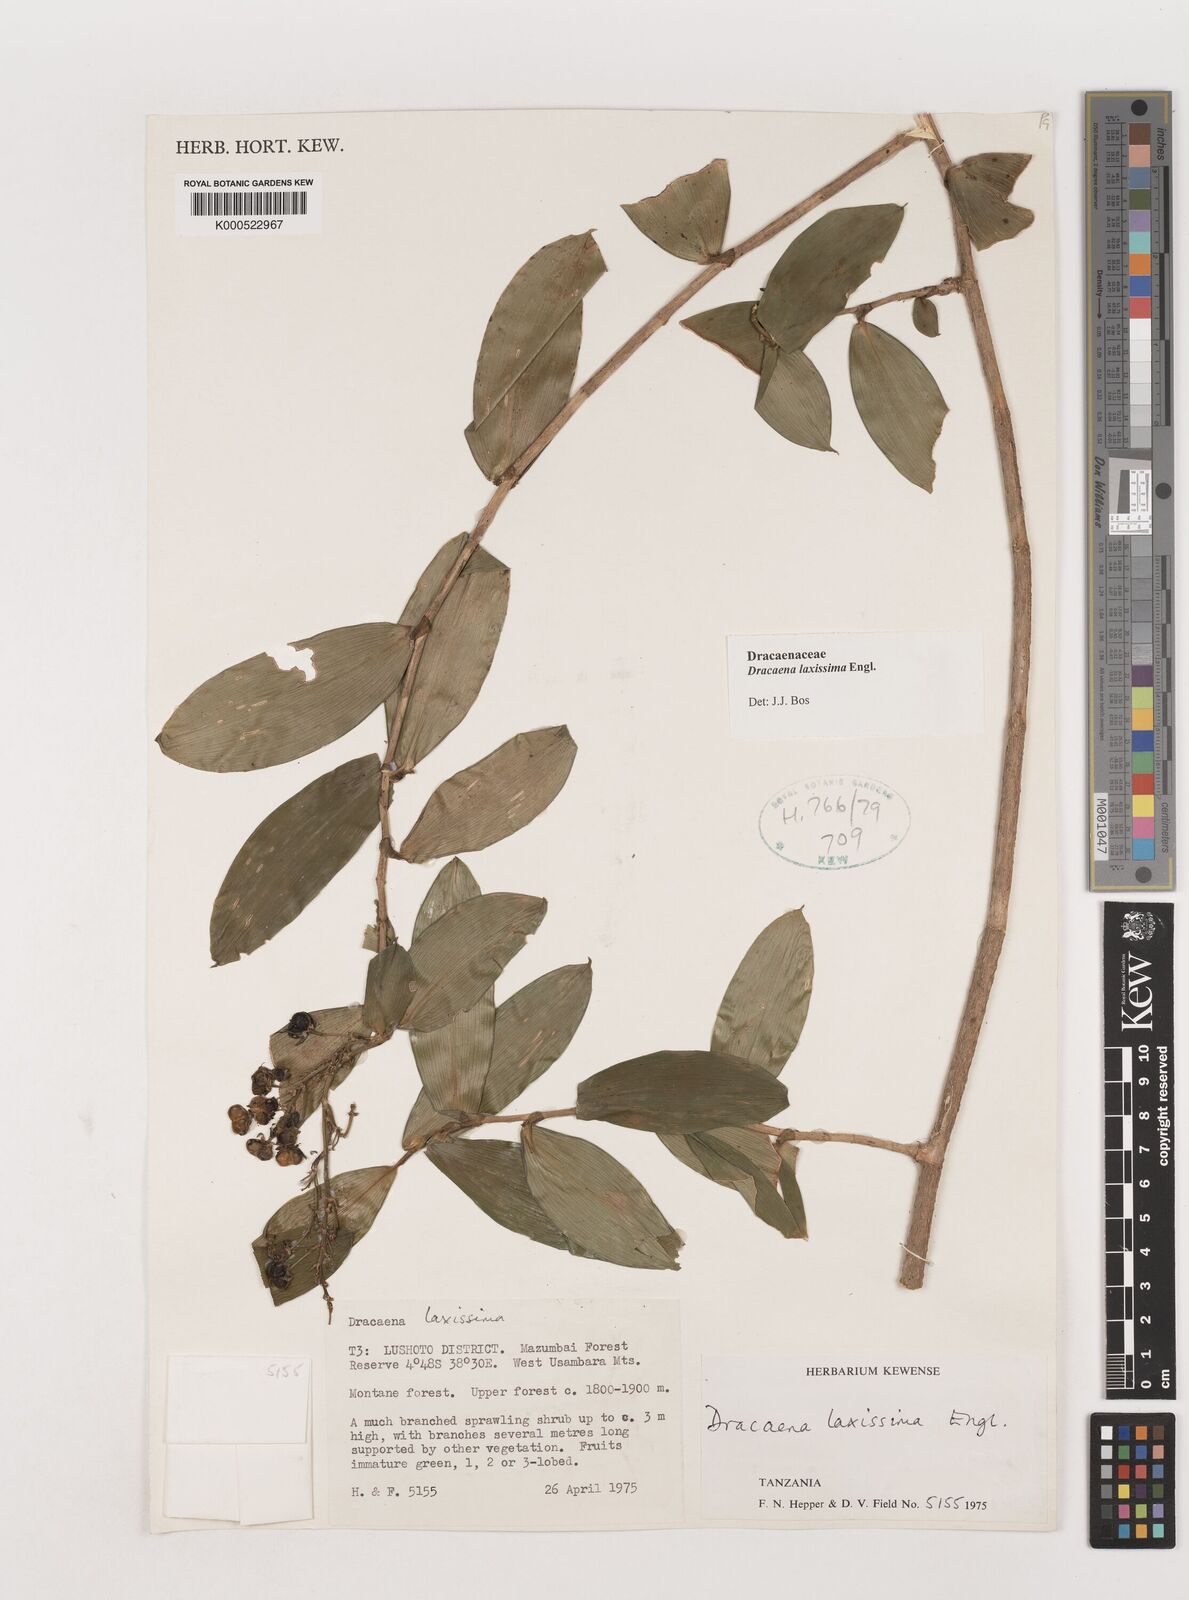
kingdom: Plantae
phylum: Tracheophyta
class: Liliopsida
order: Asparagales
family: Asparagaceae
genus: Dracaena
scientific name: Dracaena laxissima
